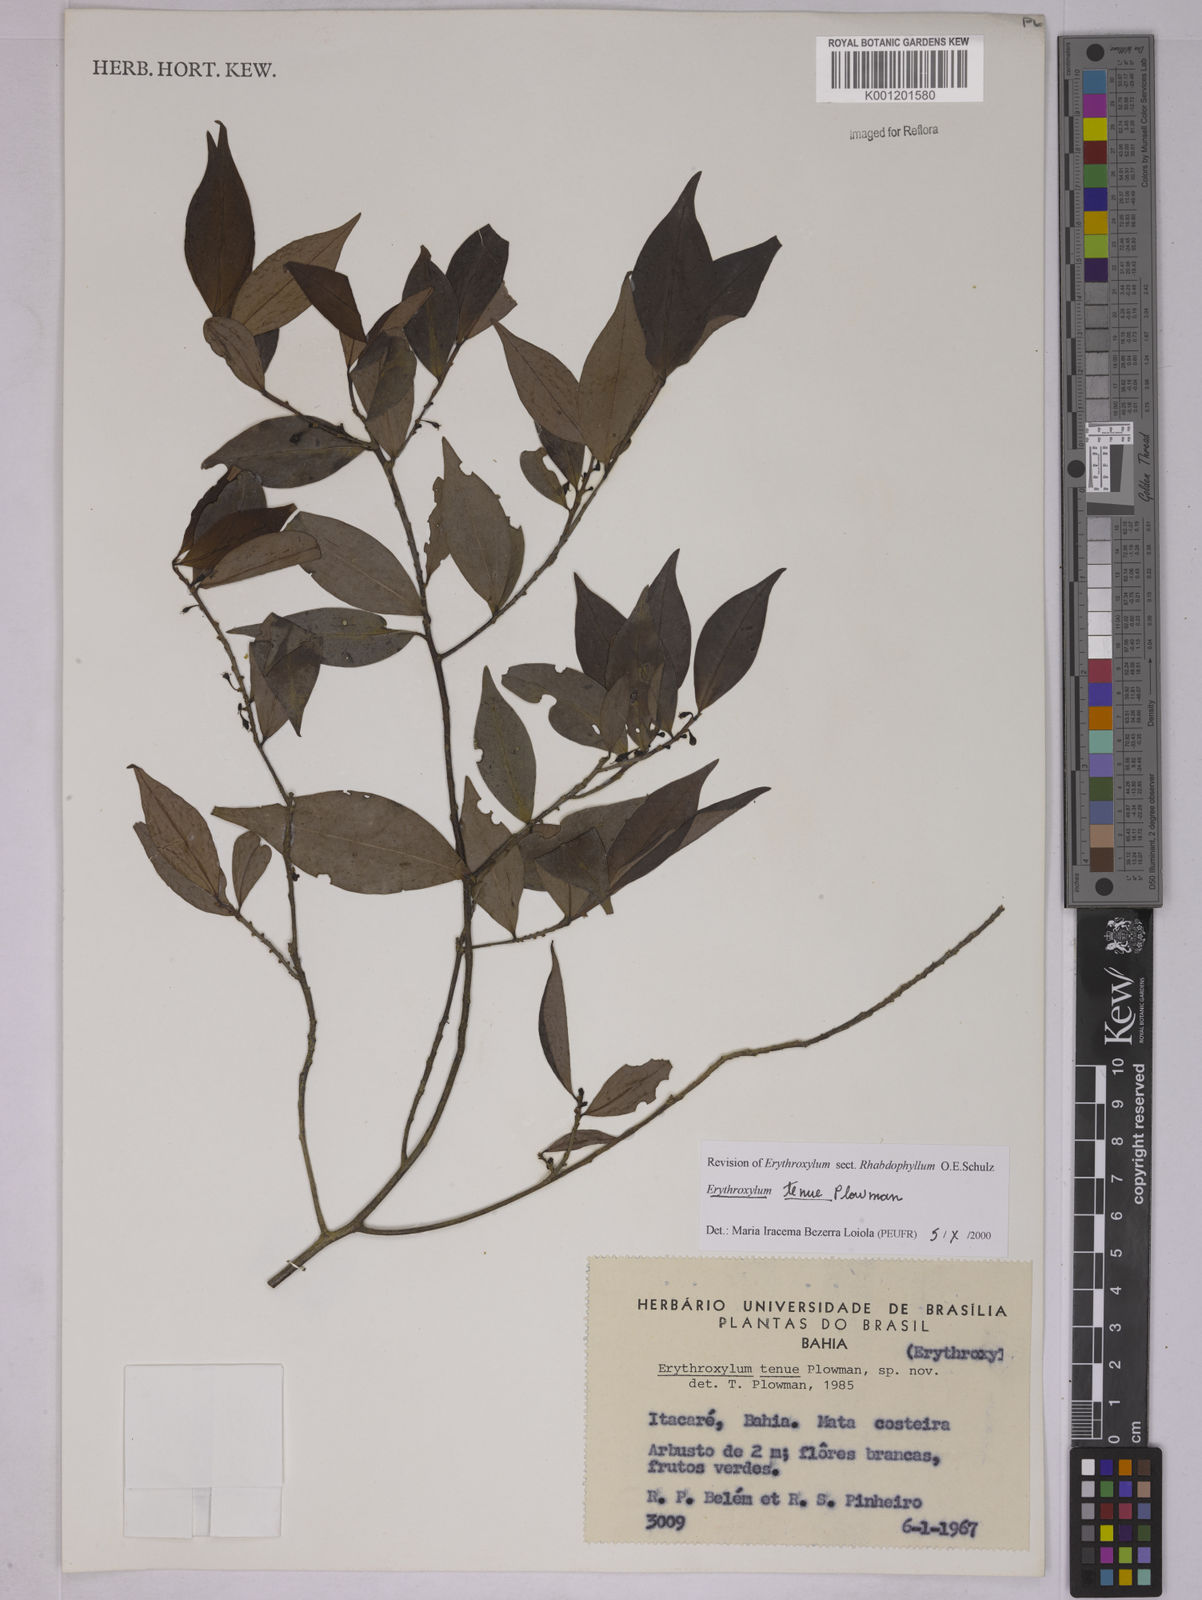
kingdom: Plantae
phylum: Tracheophyta
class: Magnoliopsida
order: Malpighiales
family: Erythroxylaceae
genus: Erythroxylum
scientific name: Erythroxylum tenue
